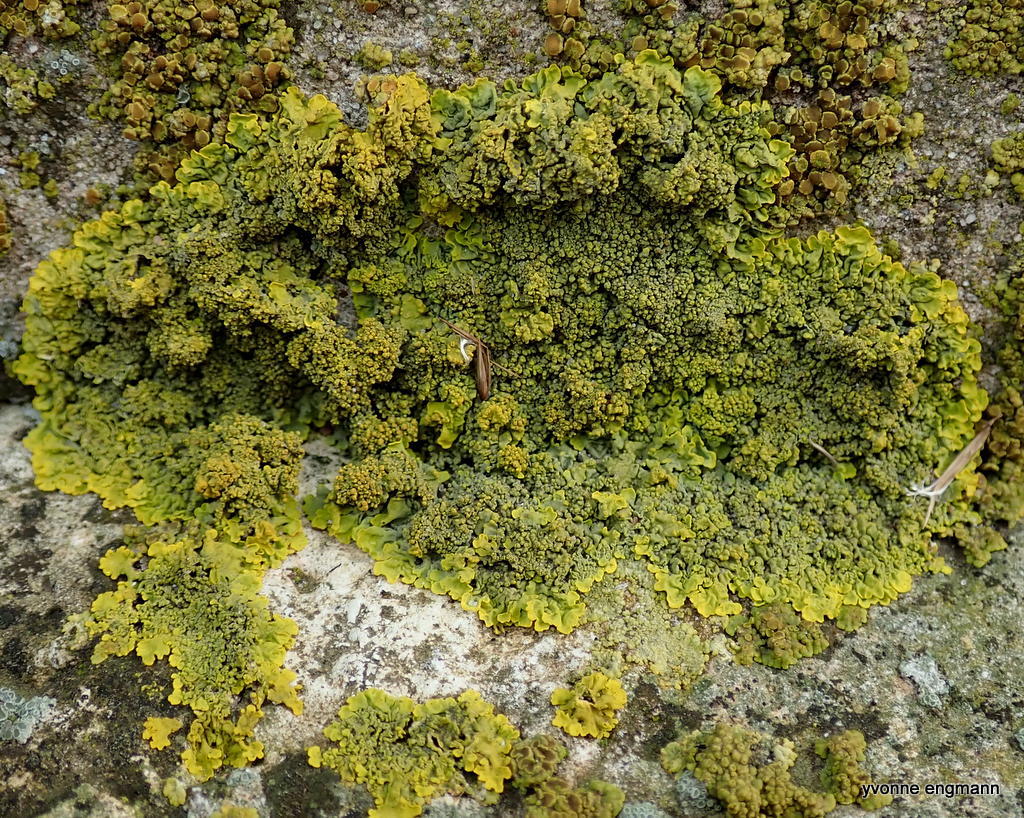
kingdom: Fungi
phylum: Ascomycota
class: Lecanoromycetes
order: Teloschistales
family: Teloschistaceae
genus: Xanthoria
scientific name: Xanthoria calcicola
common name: vortet væggelav
